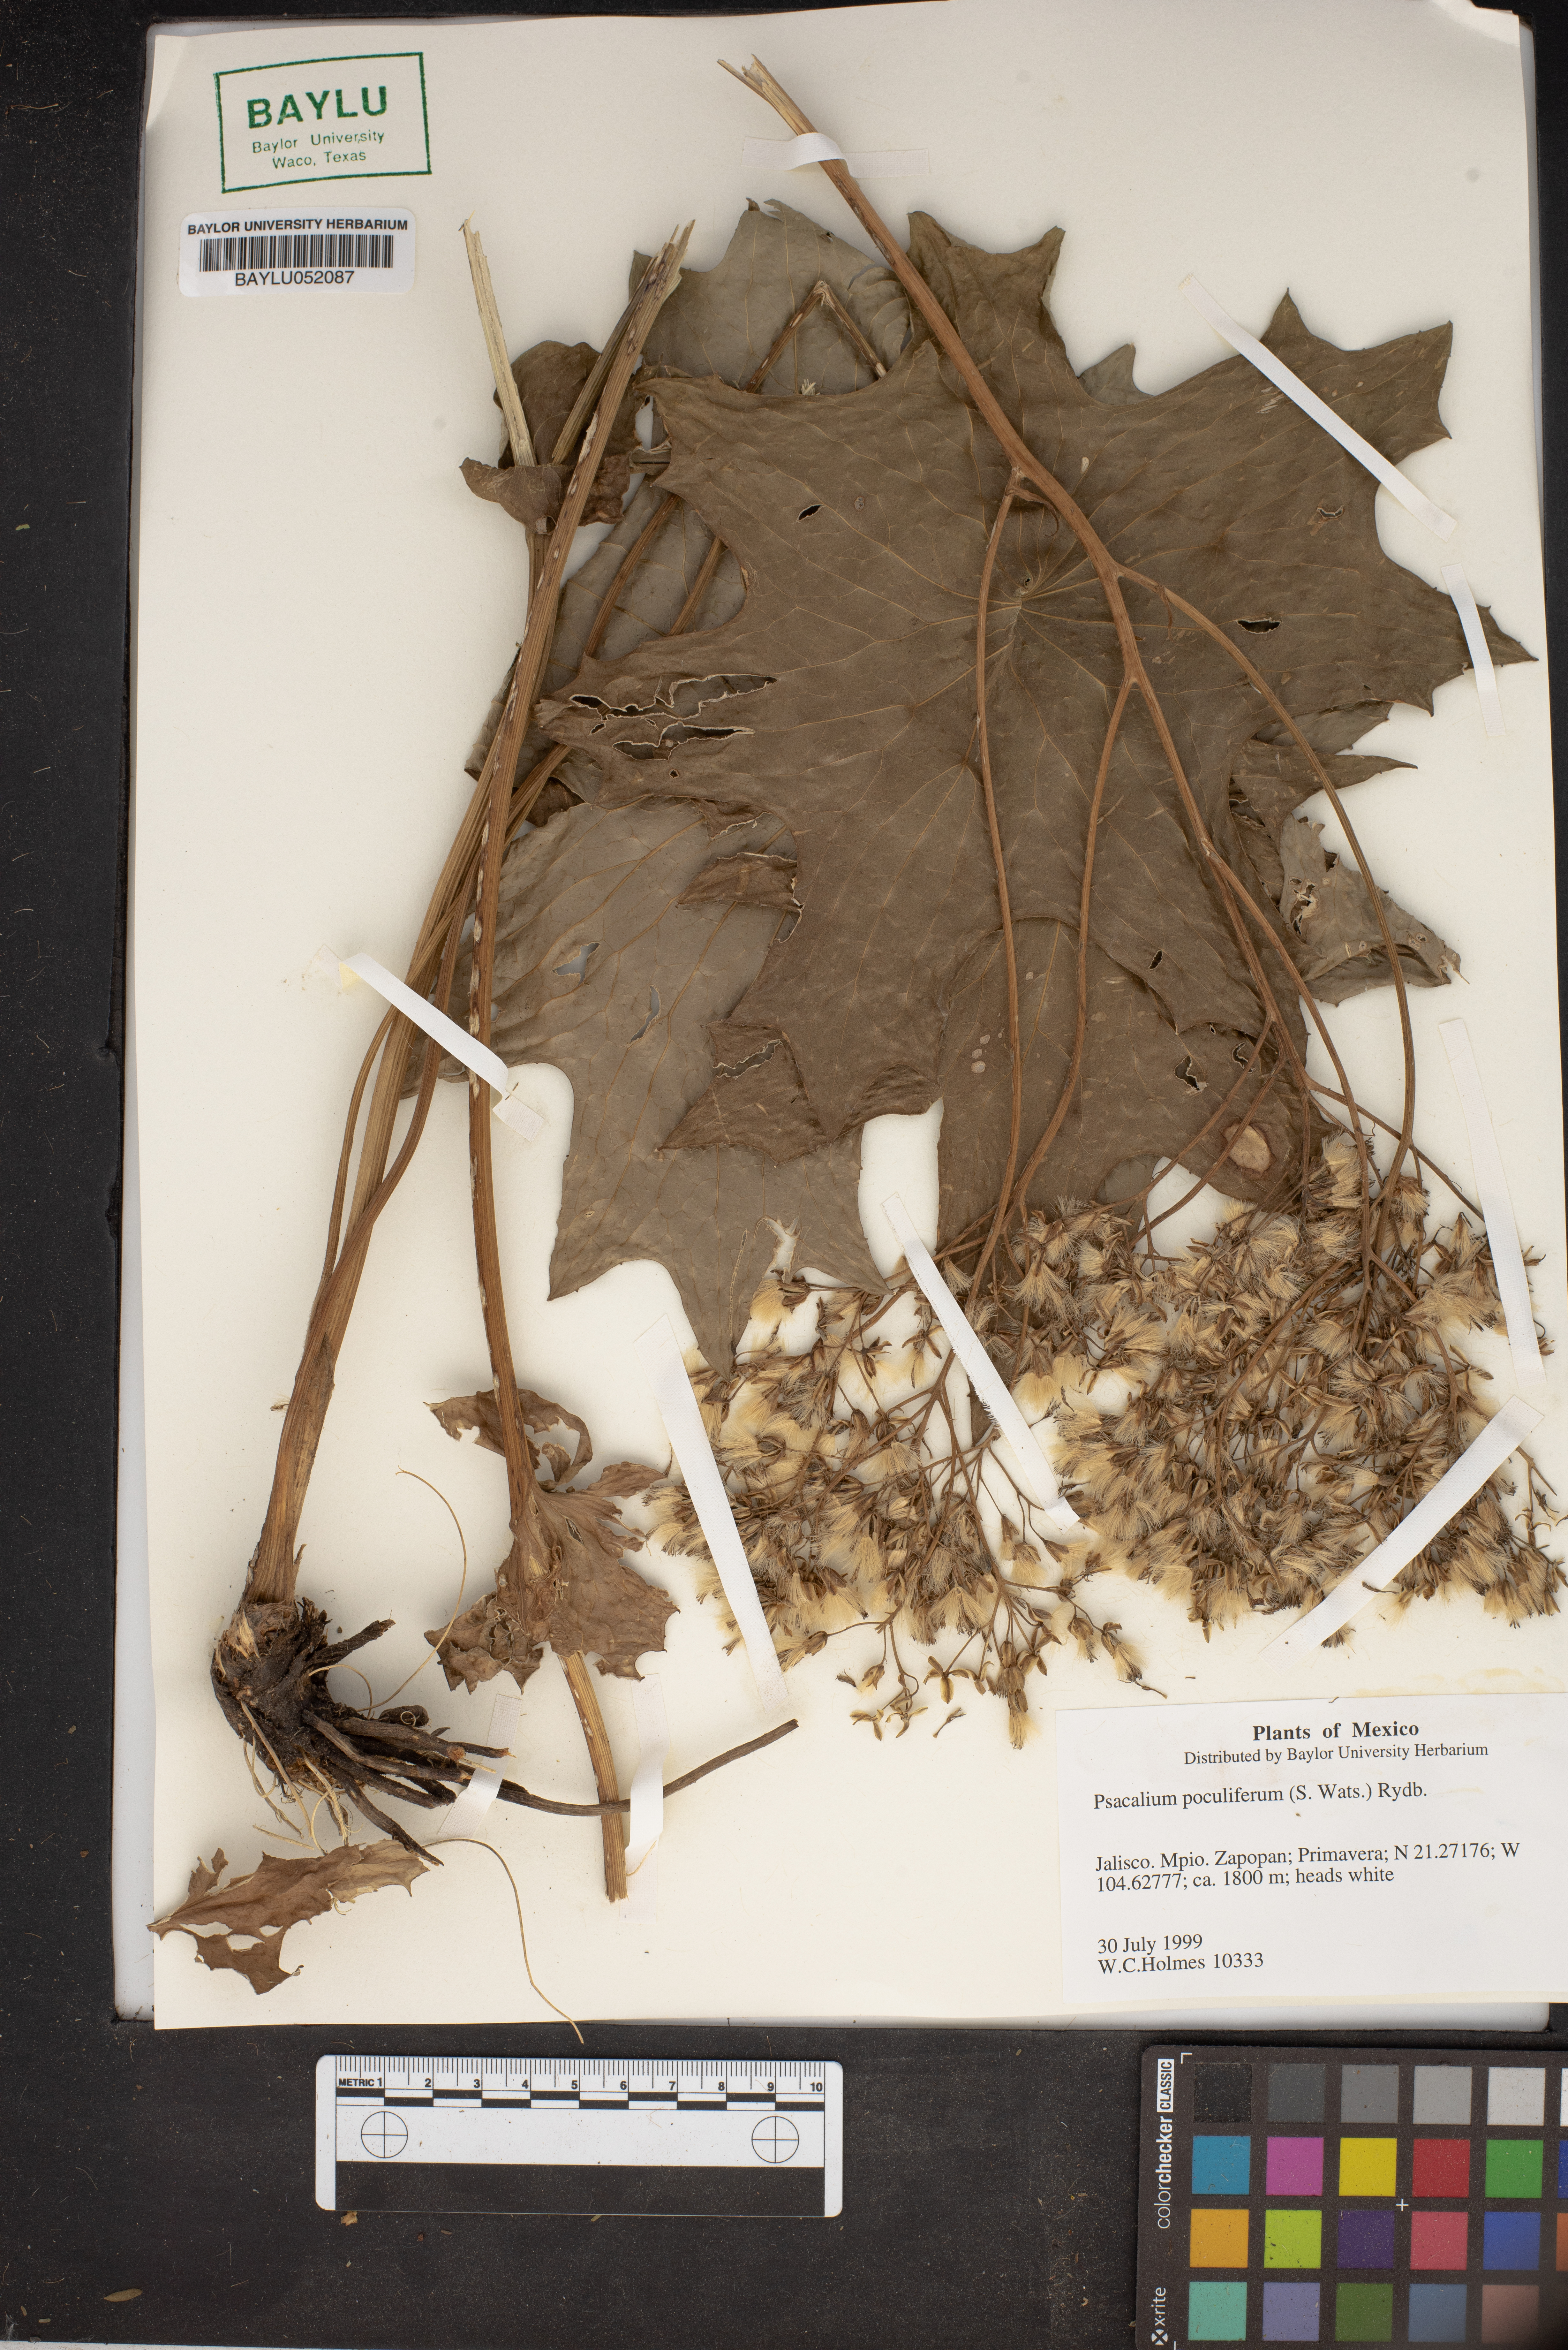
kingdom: Plantae
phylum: Tracheophyta
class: Magnoliopsida
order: Asterales
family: Asteraceae
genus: Psacalium
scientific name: Psacalium poculiferum
